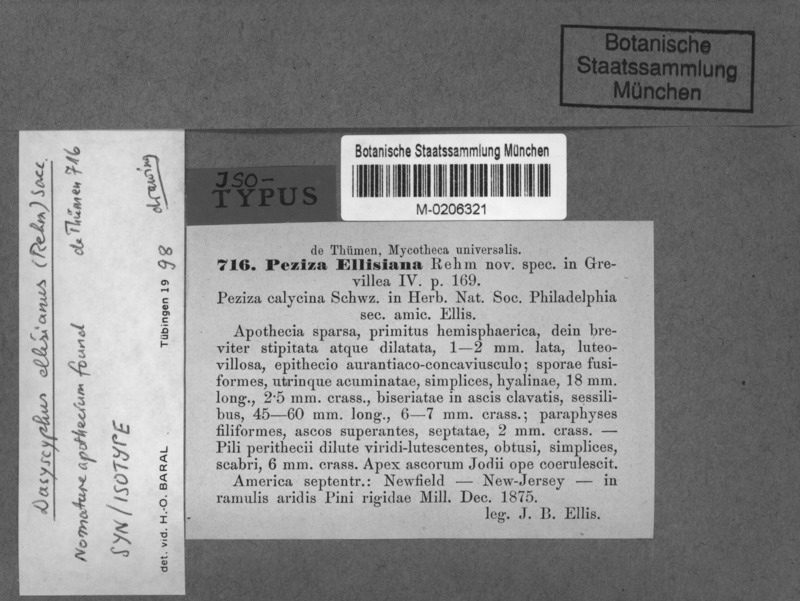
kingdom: Fungi
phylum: Ascomycota
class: Leotiomycetes
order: Helotiales
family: Lachnaceae
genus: Lachnellula
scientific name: Lachnellula ellisiana
